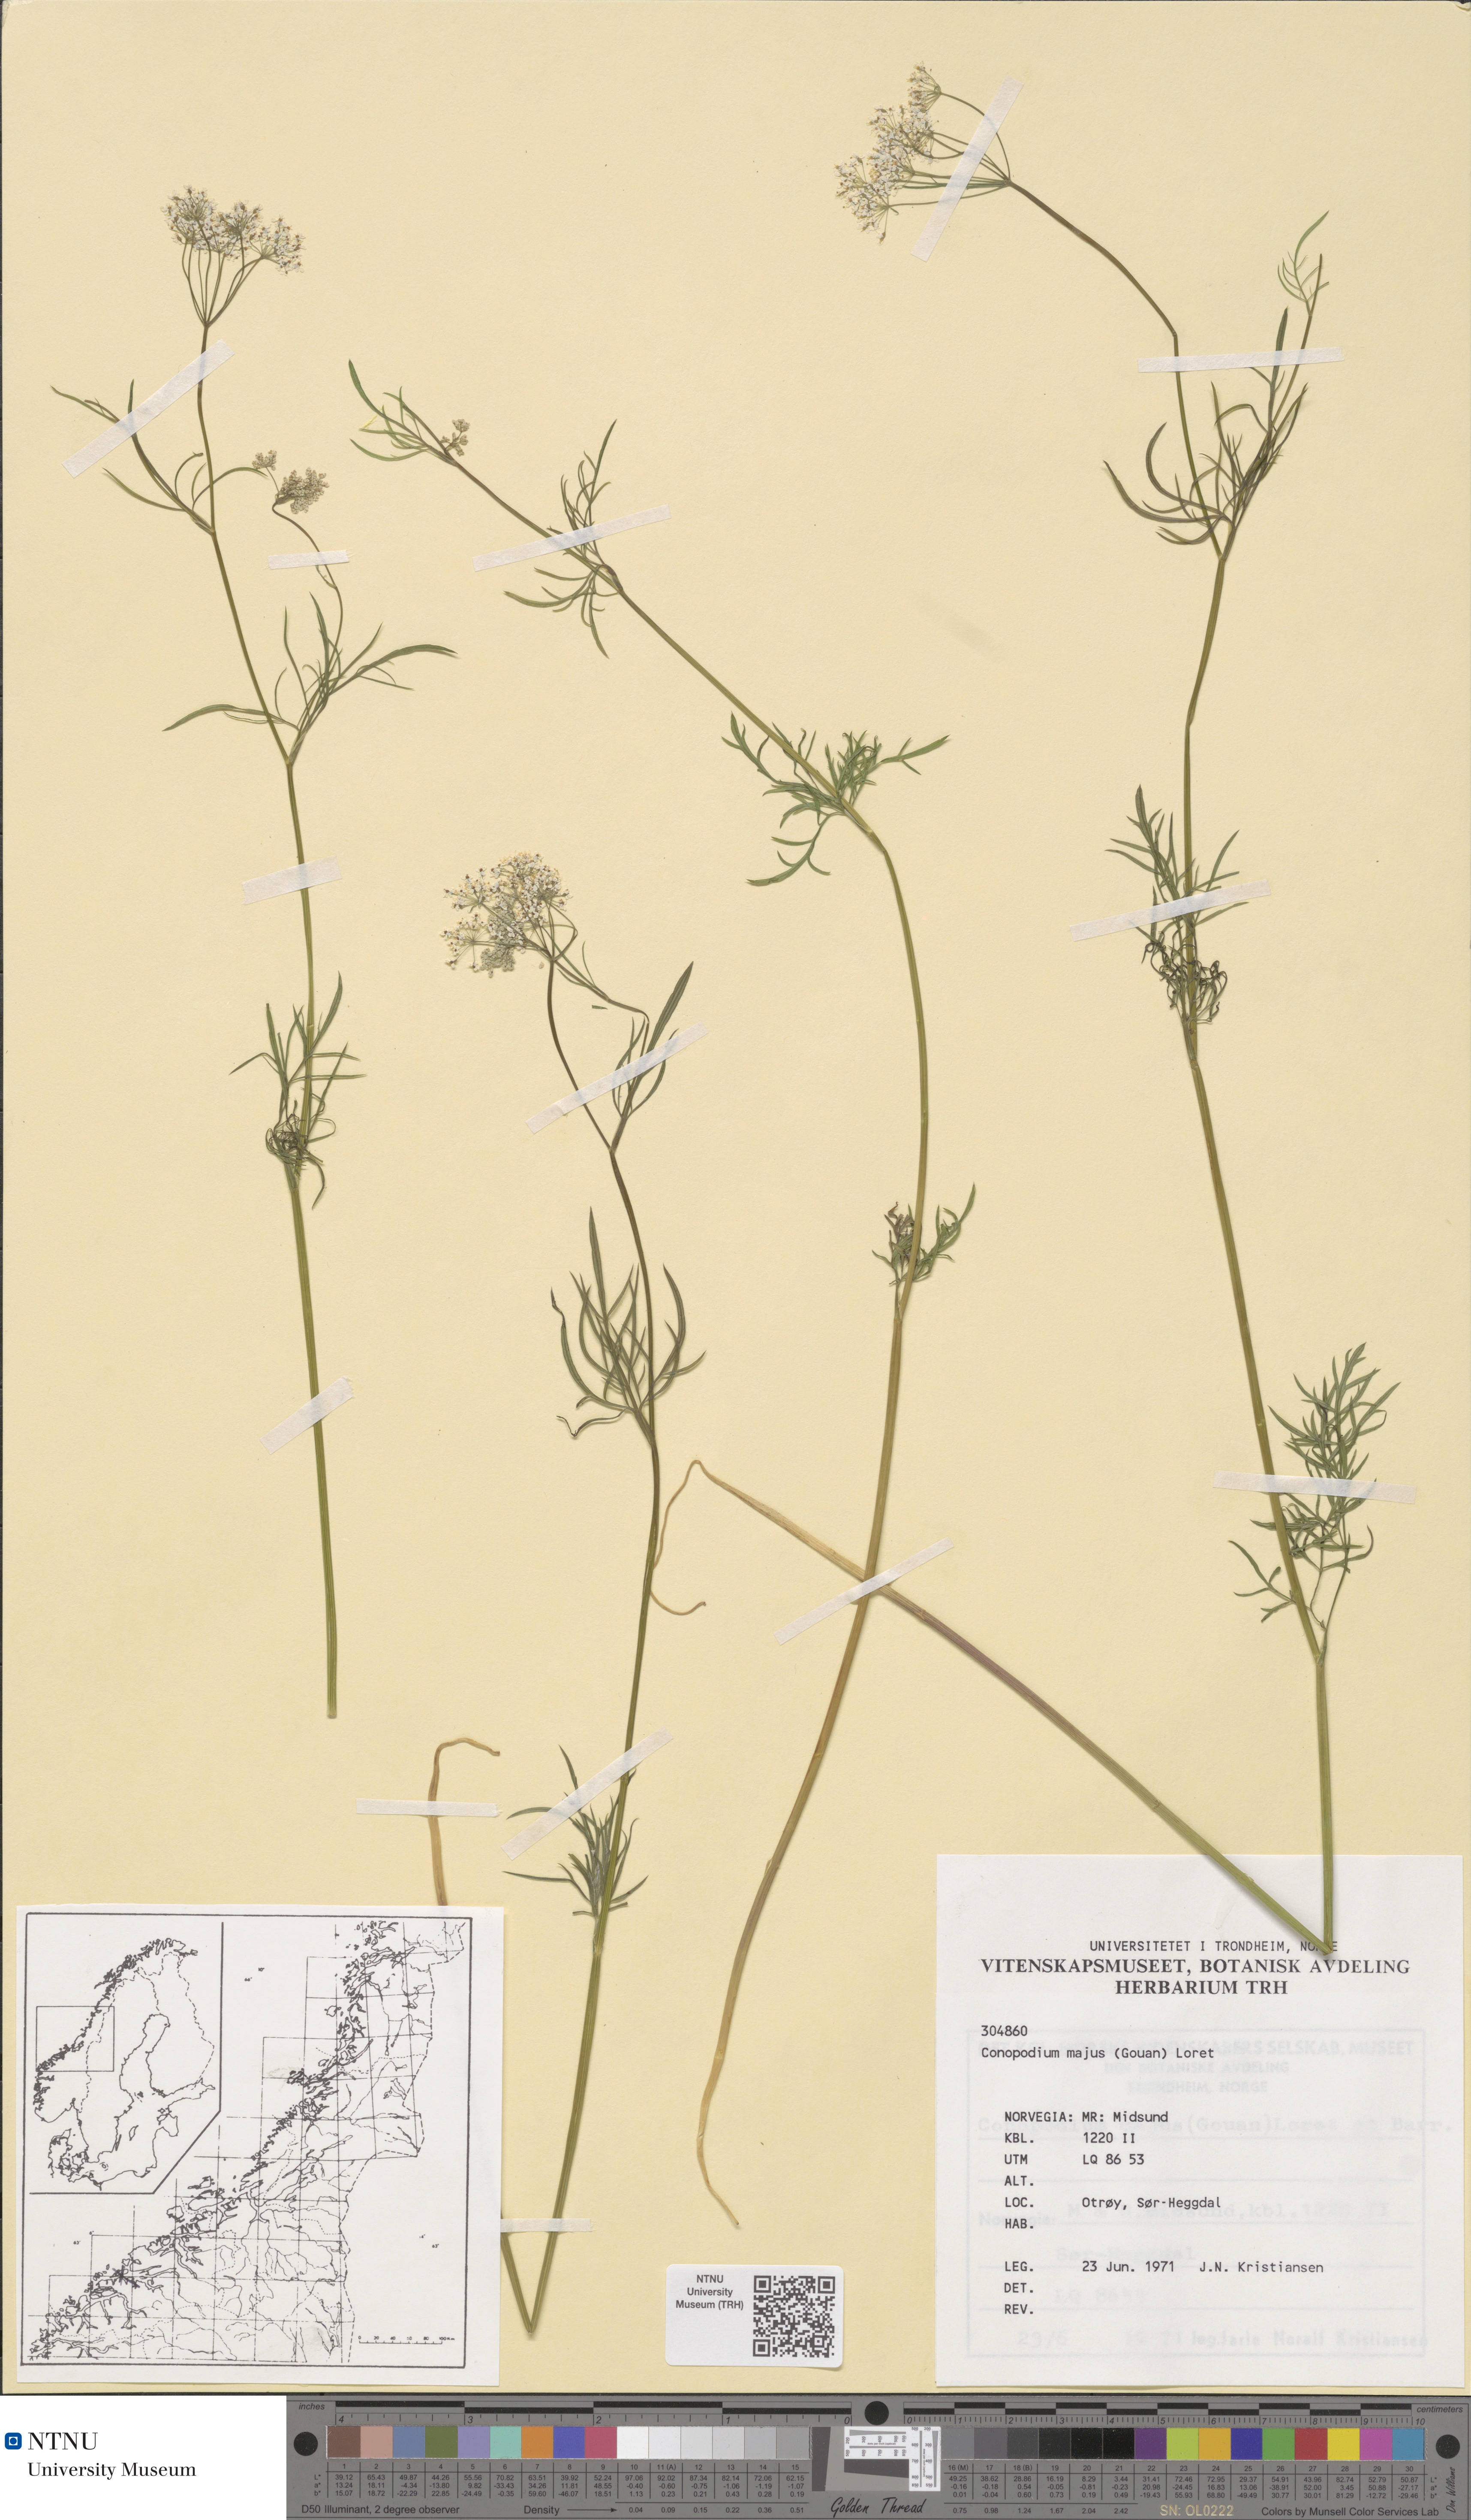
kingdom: Plantae
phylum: Tracheophyta
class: Magnoliopsida
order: Apiales
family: Apiaceae
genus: Conopodium
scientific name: Conopodium majus
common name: Pignut
